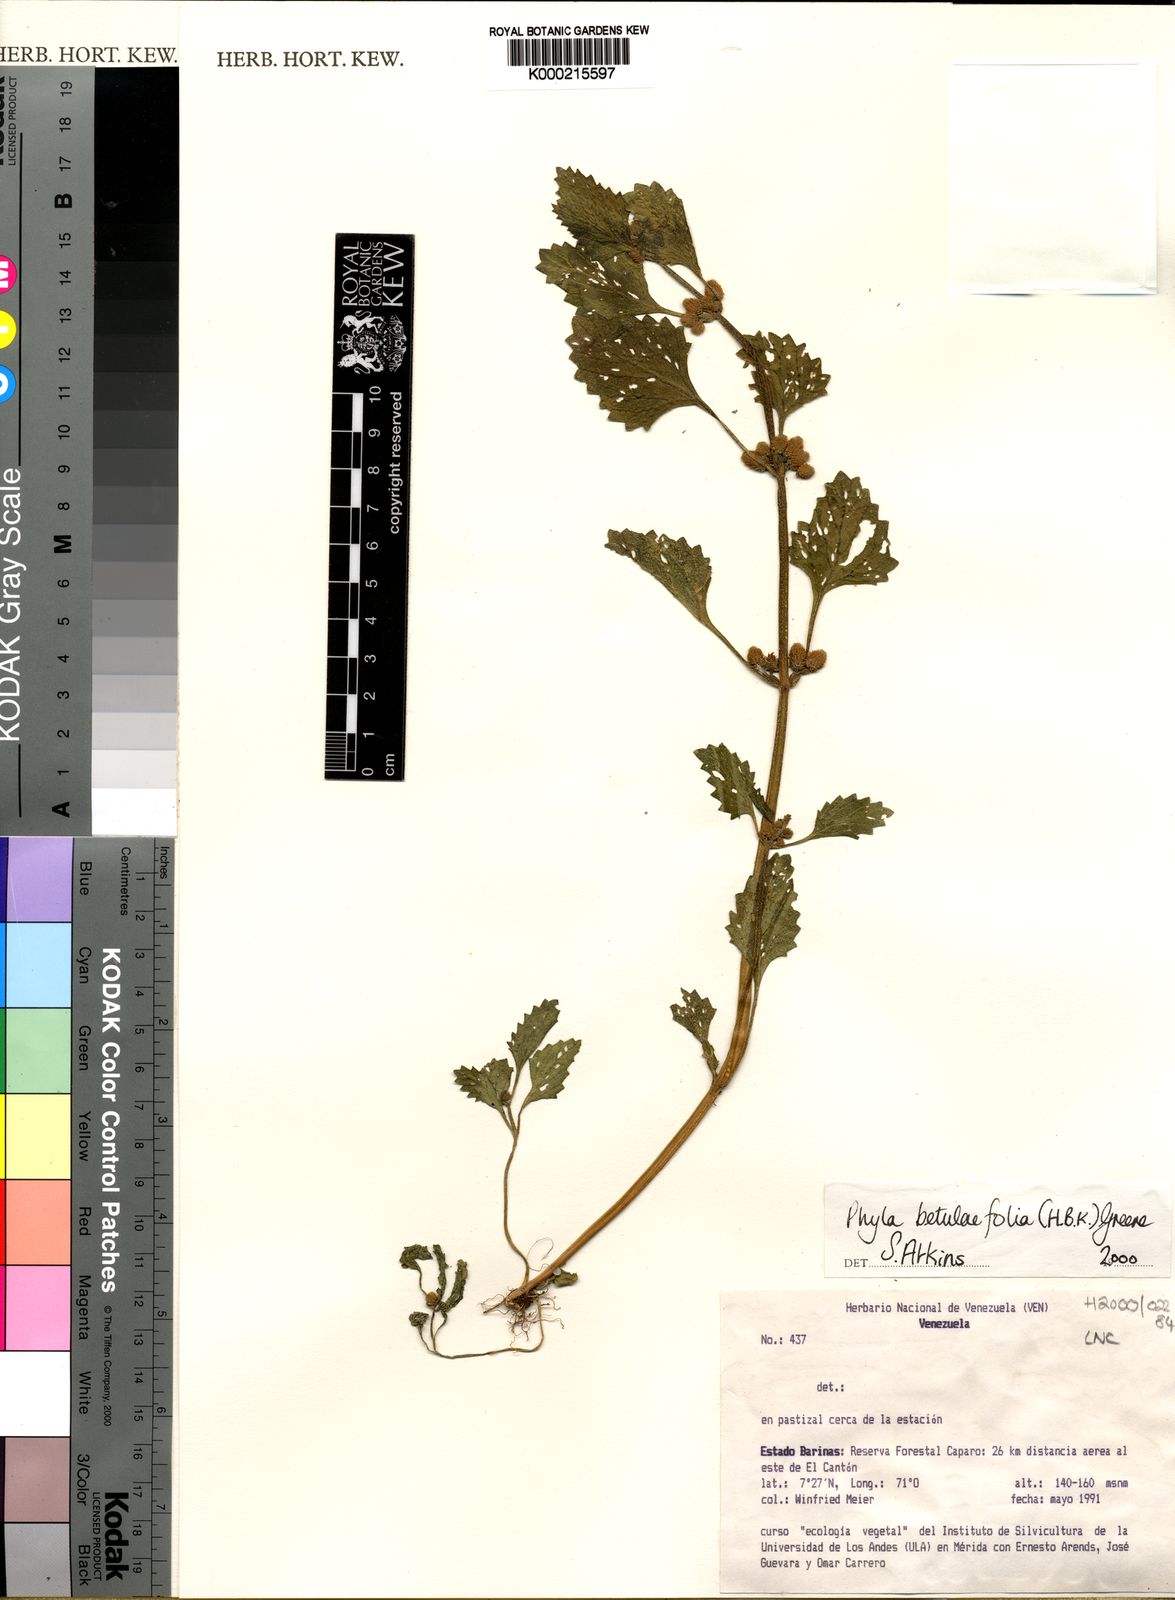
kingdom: Plantae
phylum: Tracheophyta
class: Magnoliopsida
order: Lamiales
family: Verbenaceae
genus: Phyla
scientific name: Phyla betulifolia
